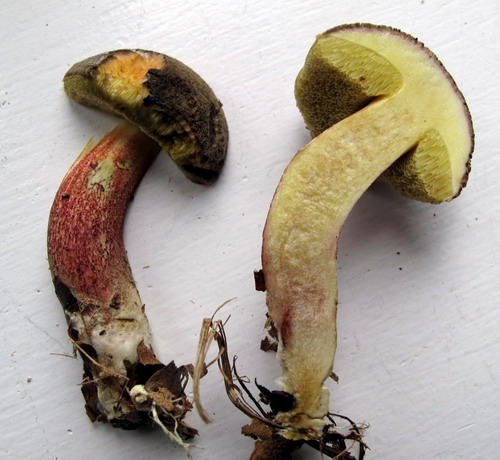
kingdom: Fungi
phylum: Basidiomycota
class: Agaricomycetes
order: Boletales
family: Boletaceae
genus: Xerocomellus
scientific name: Xerocomellus chrysenteron
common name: rødsprukken rørhat
